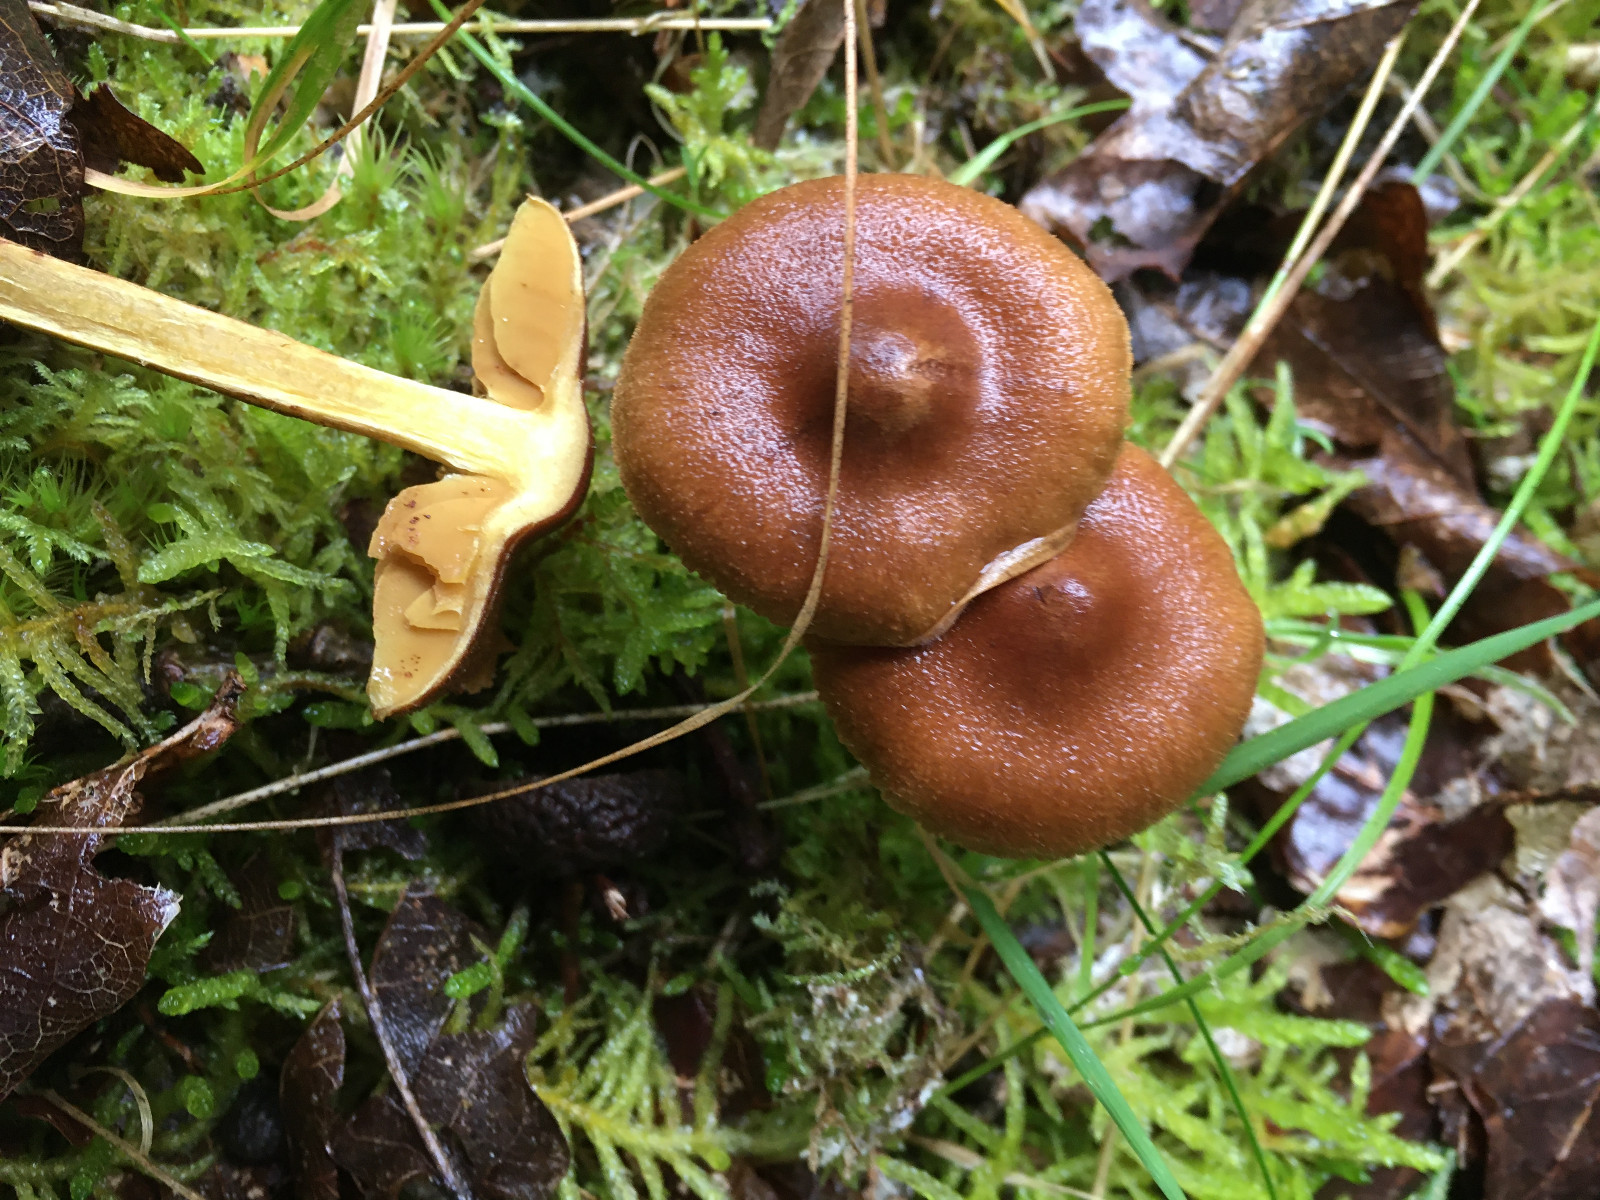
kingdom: Fungi
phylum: Basidiomycota
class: Agaricomycetes
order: Agaricales
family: Cortinariaceae
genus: Cortinarius
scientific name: Cortinarius
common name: gulbladet slørhat
